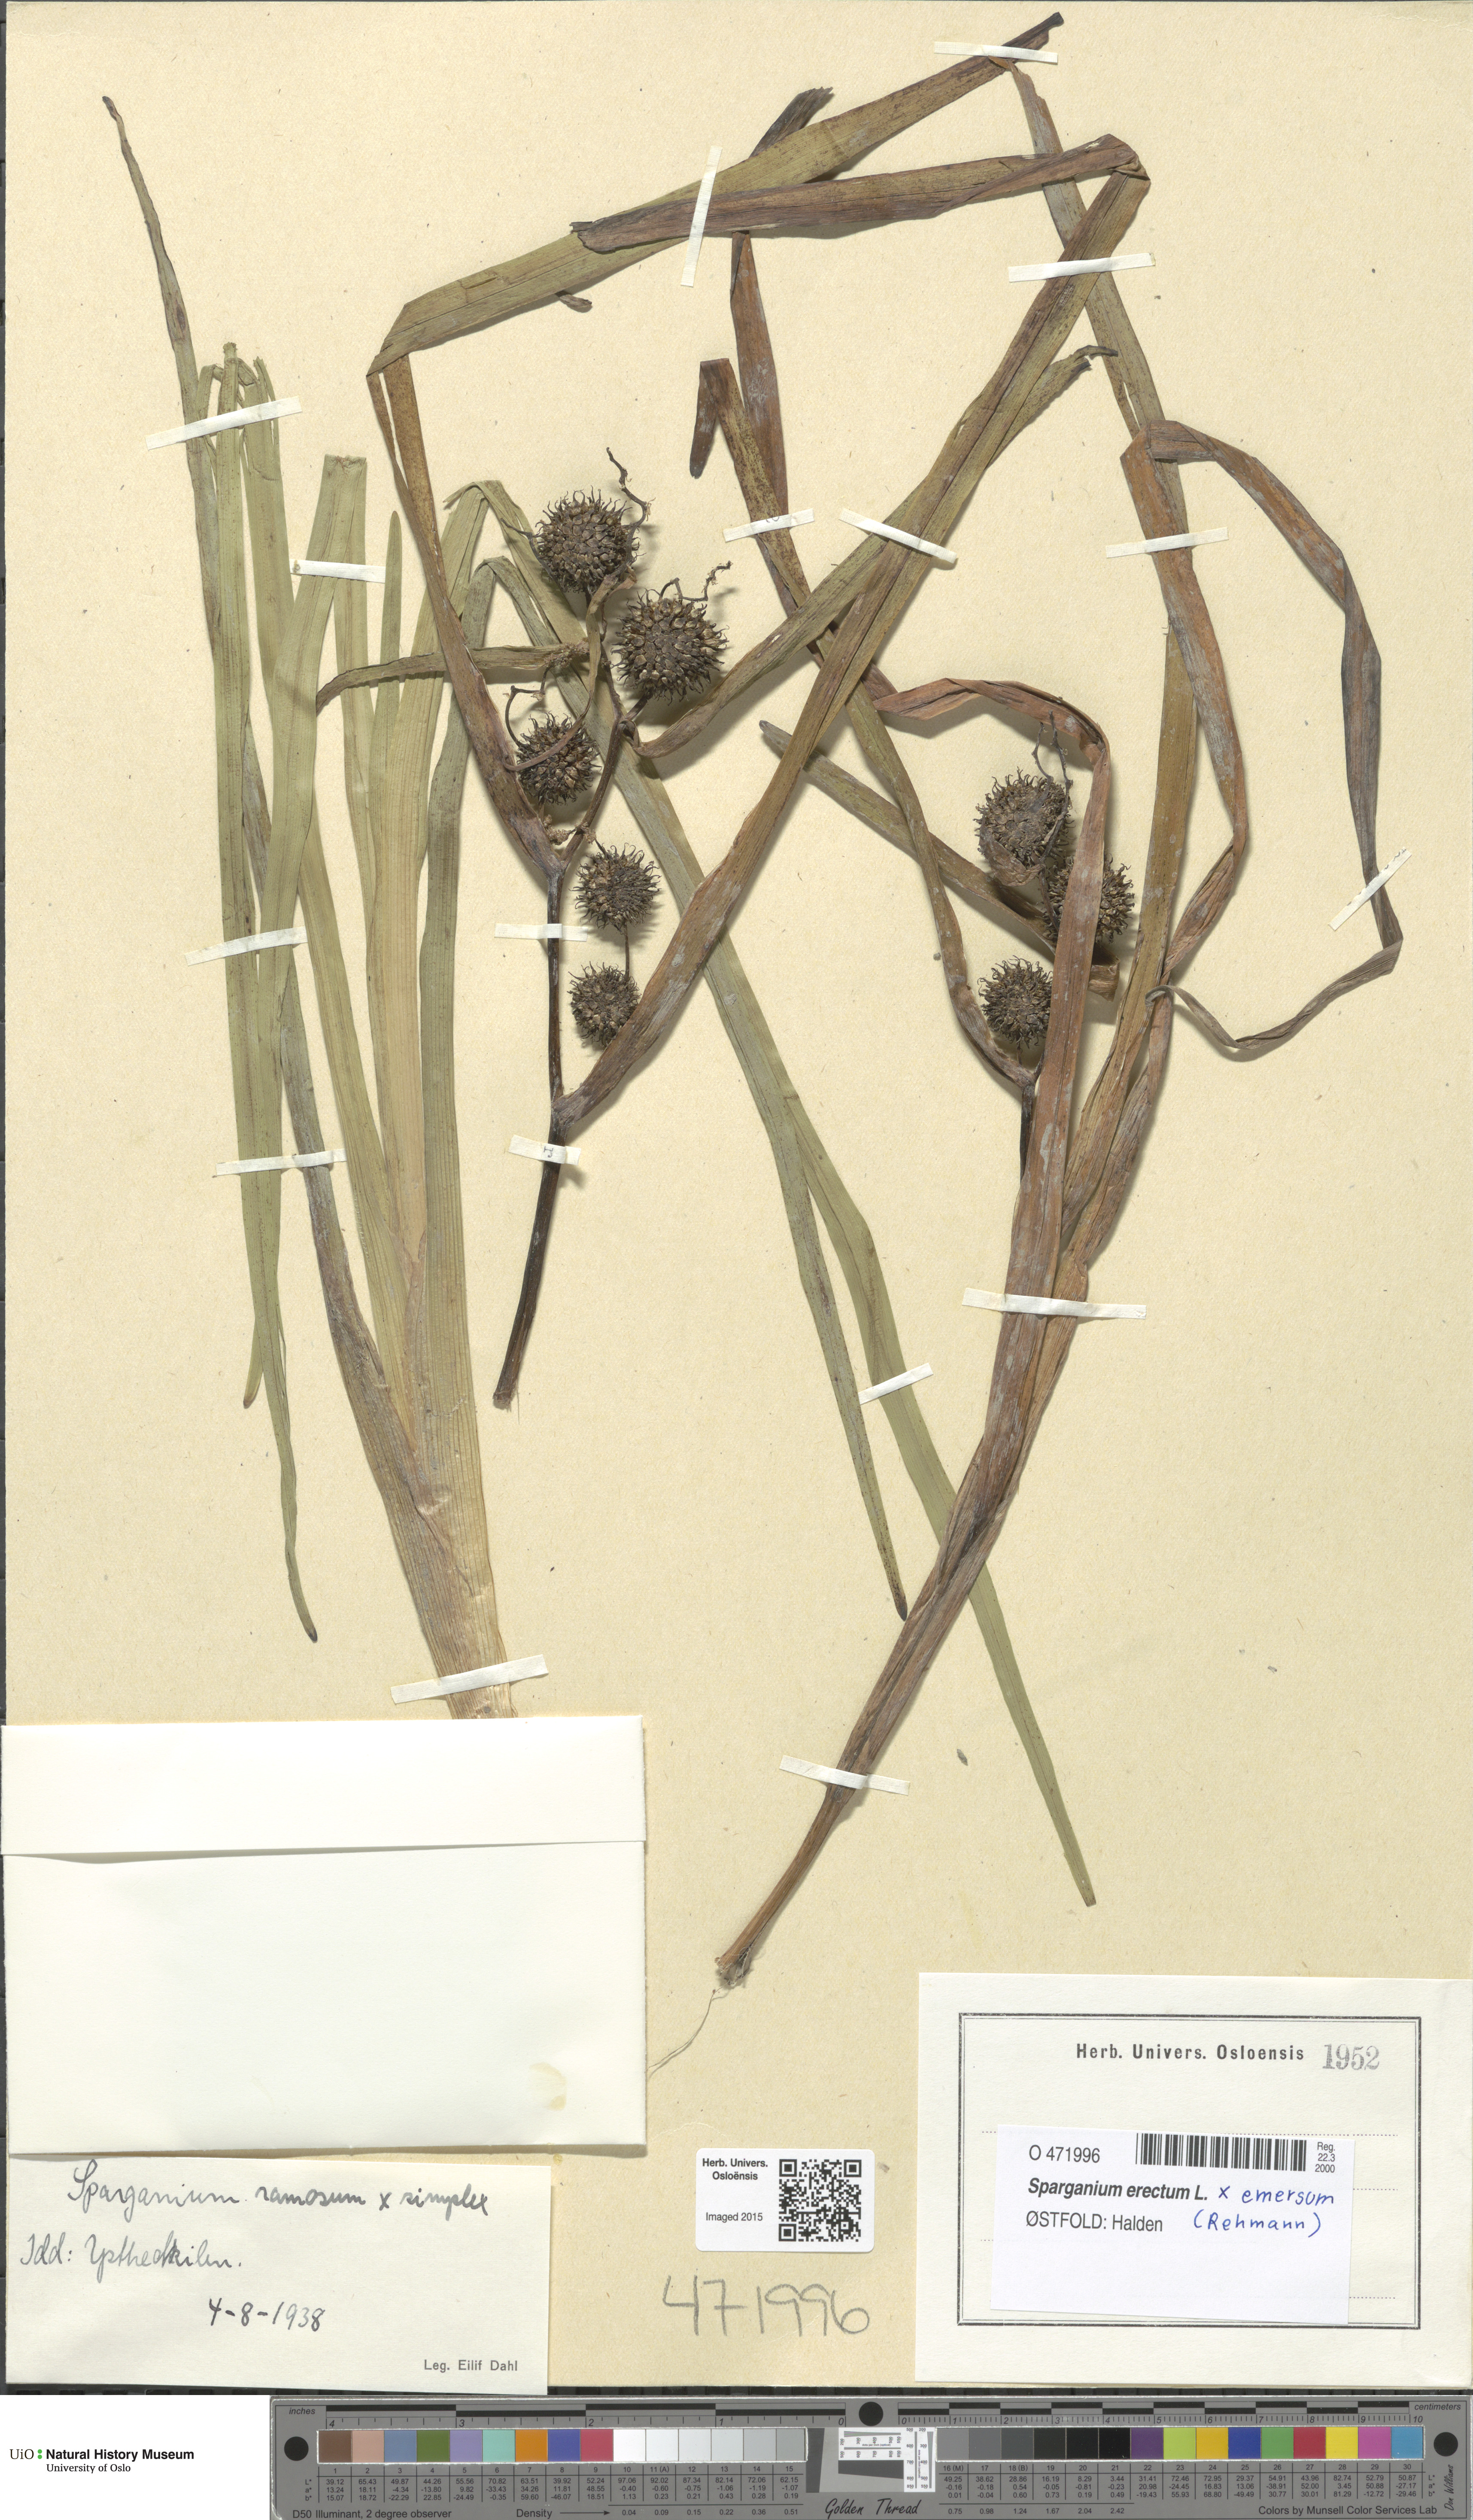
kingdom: Plantae
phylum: Tracheophyta
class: Liliopsida
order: Poales
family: Typhaceae
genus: Sparganium
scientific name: Sparganium
